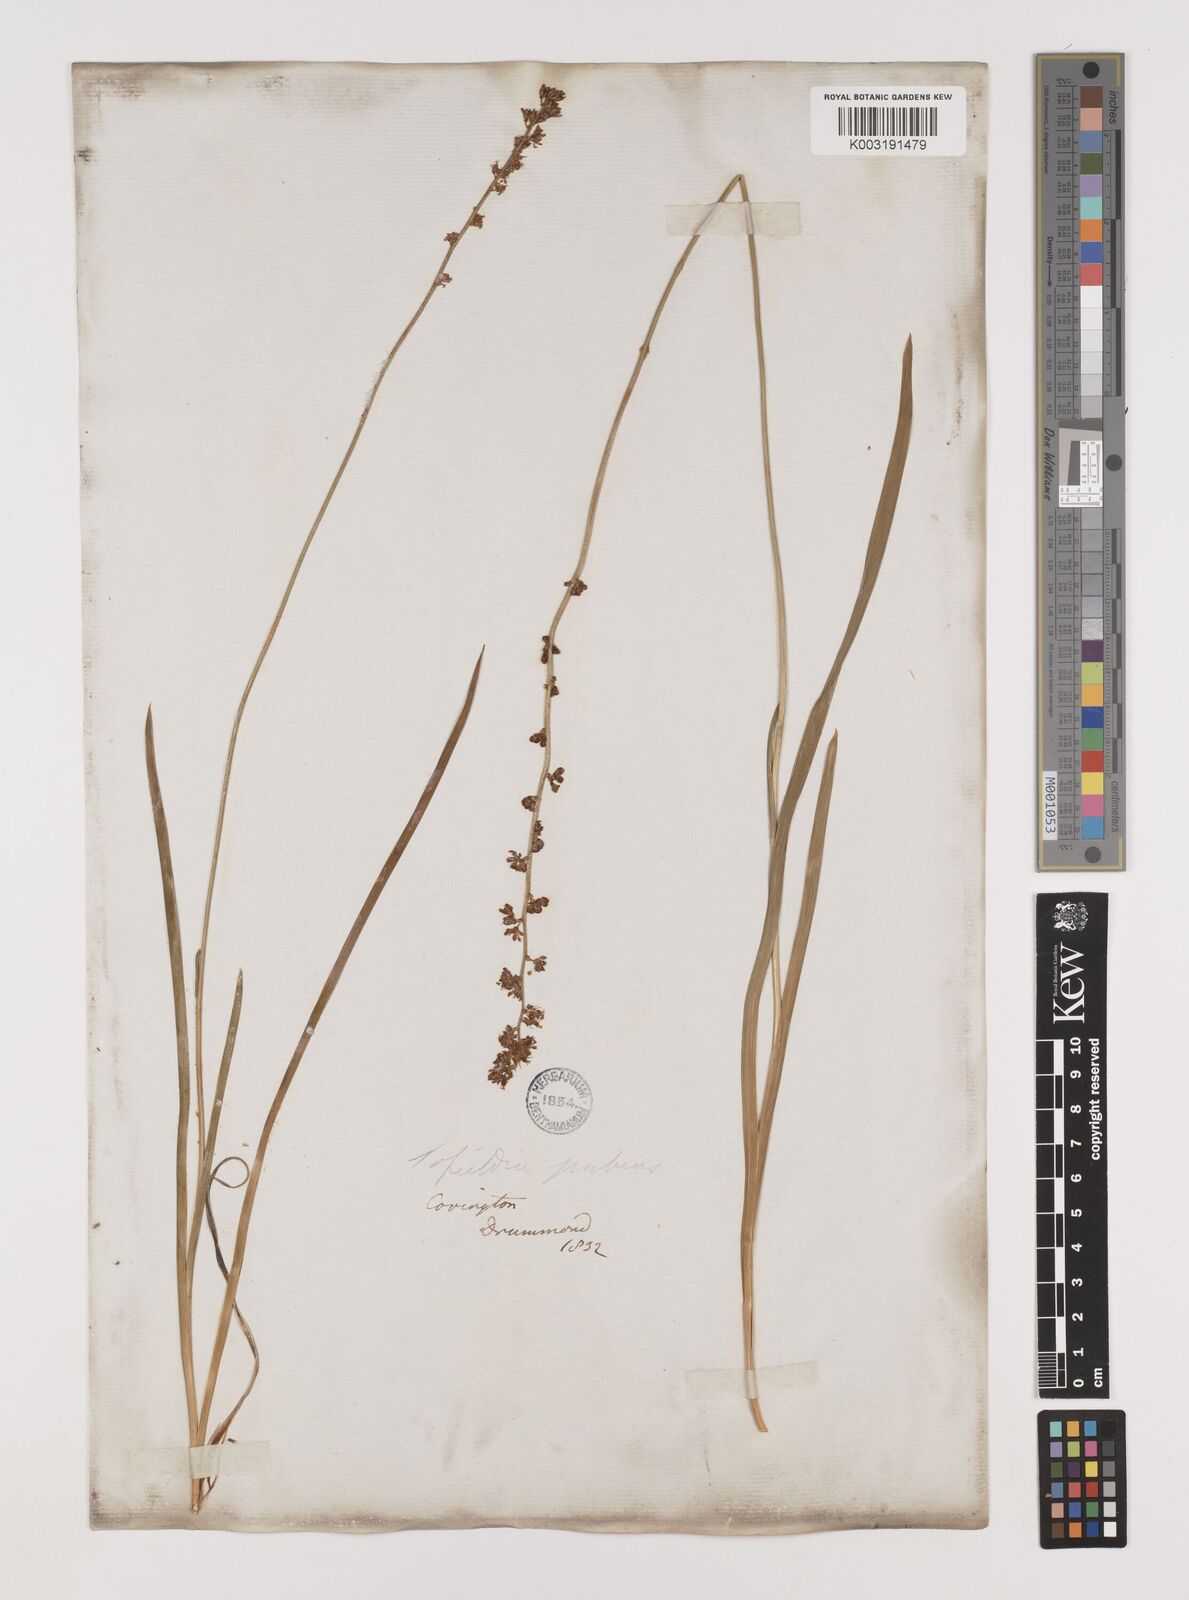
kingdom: Plantae
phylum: Tracheophyta
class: Liliopsida
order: Alismatales
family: Tofieldiaceae
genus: Triantha
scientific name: Triantha racemosa
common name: Coastal false asphodel
